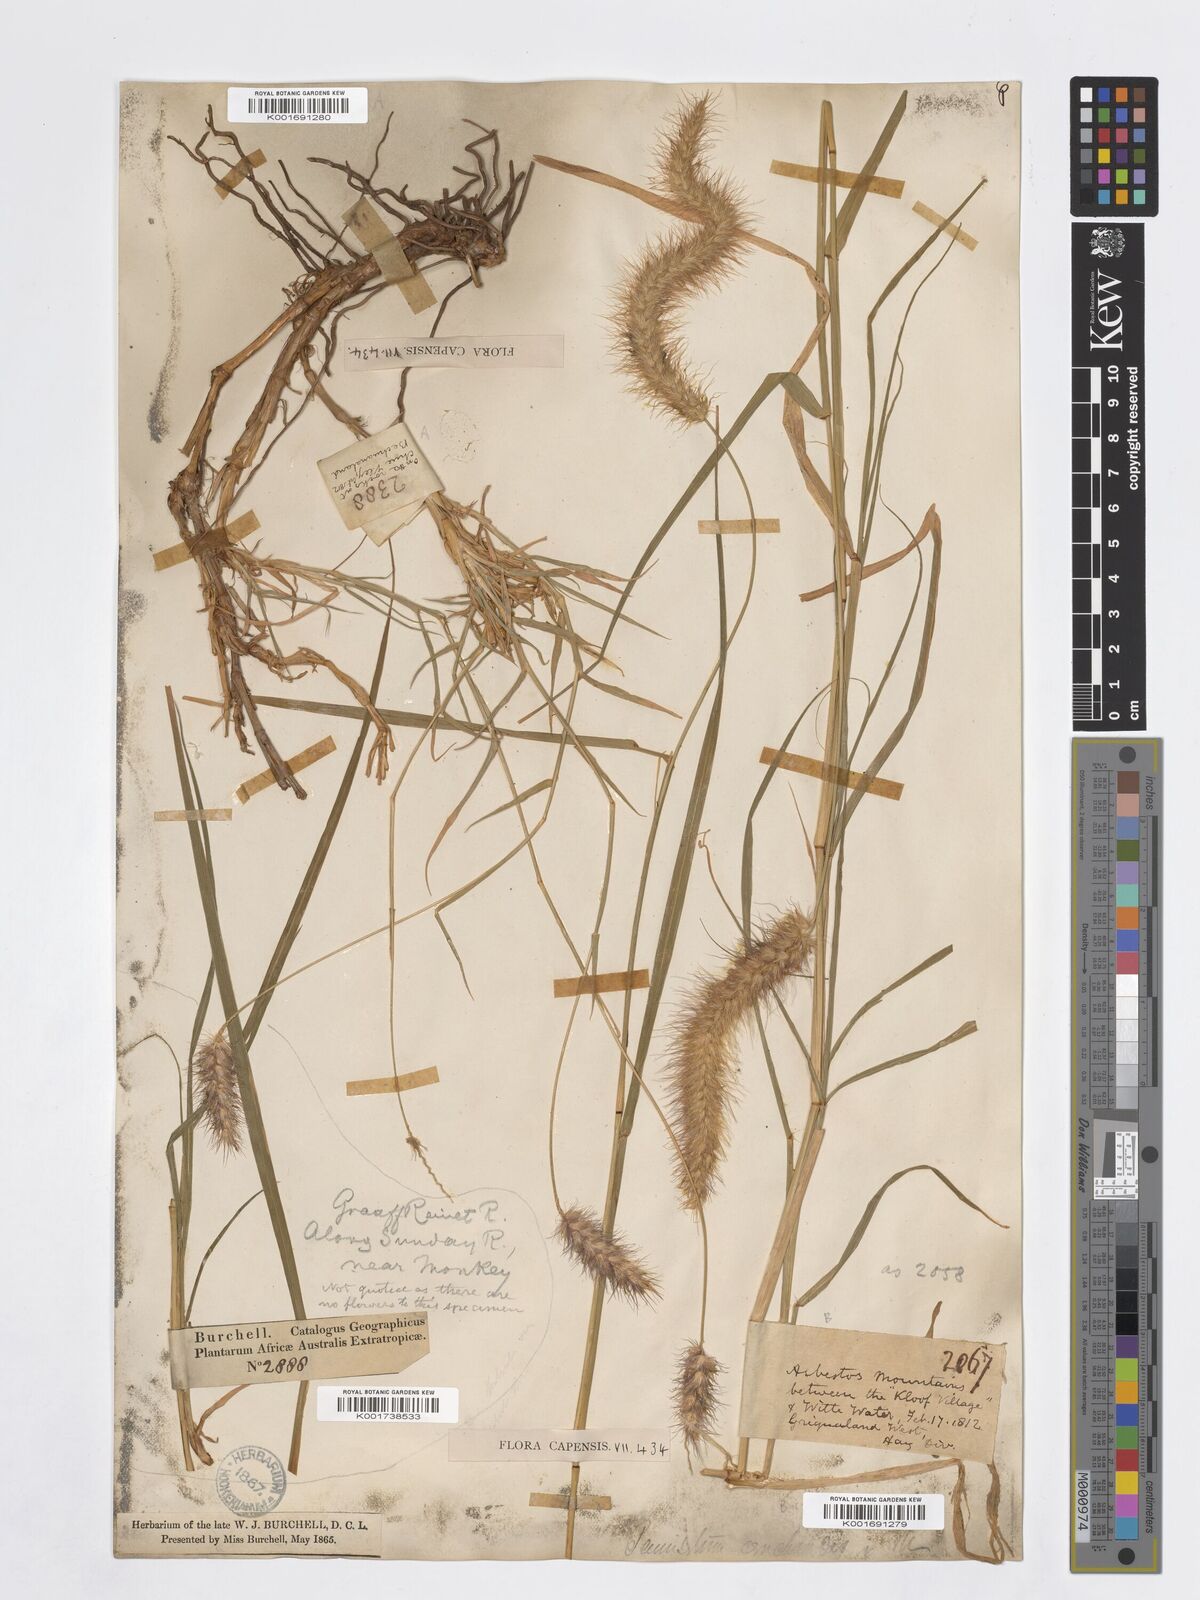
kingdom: Plantae
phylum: Tracheophyta
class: Liliopsida
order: Poales
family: Poaceae
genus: Cenchrus
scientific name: Cenchrus ciliaris
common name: Buffelgrass
